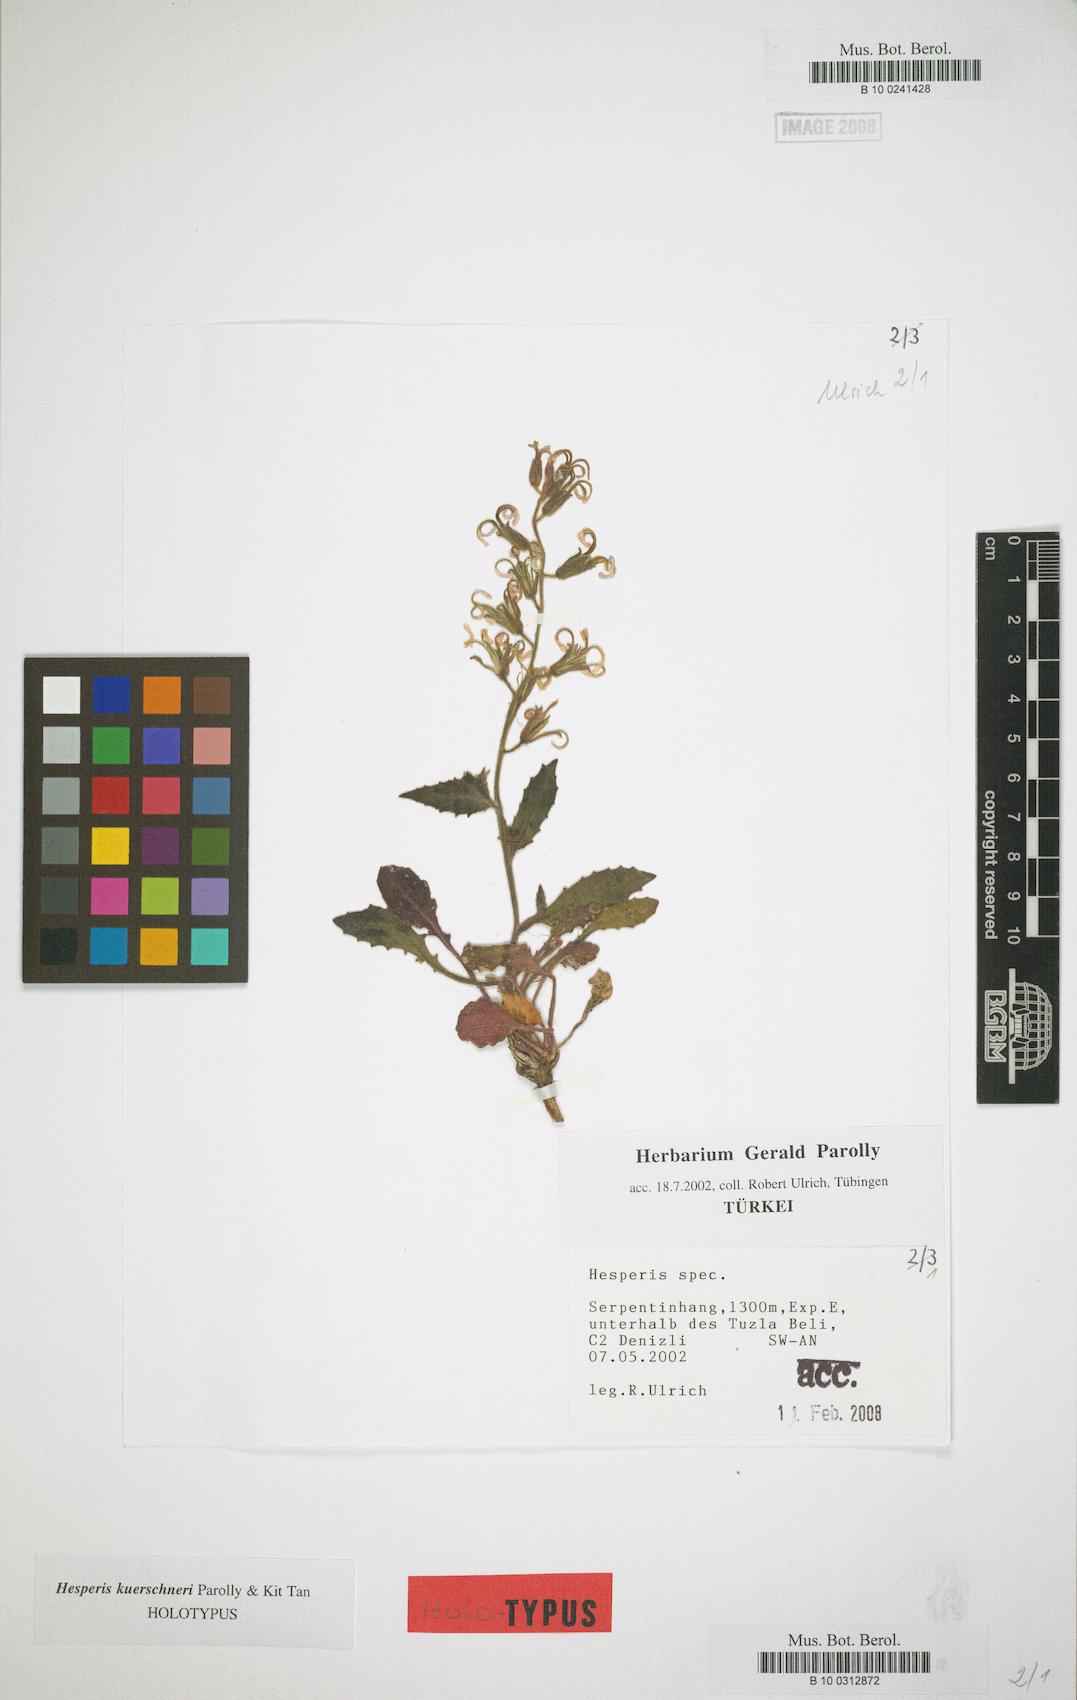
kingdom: Plantae
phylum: Tracheophyta
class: Magnoliopsida
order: Brassicales
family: Brassicaceae
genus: Hesperis
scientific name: Hesperis kuerschneri
